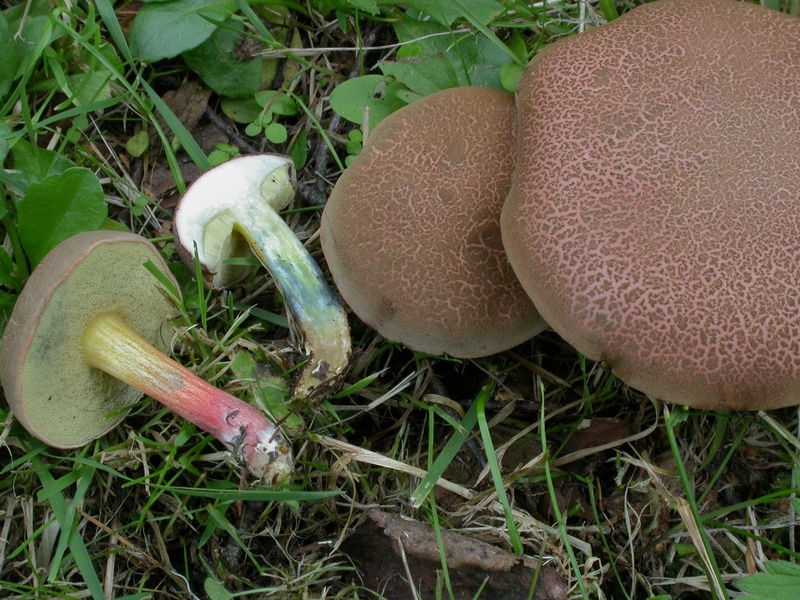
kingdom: Fungi
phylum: Basidiomycota
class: Agaricomycetes
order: Boletales
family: Boletaceae
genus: Xerocomellus
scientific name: Xerocomellus cisalpinus
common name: finsprukken rørhat
